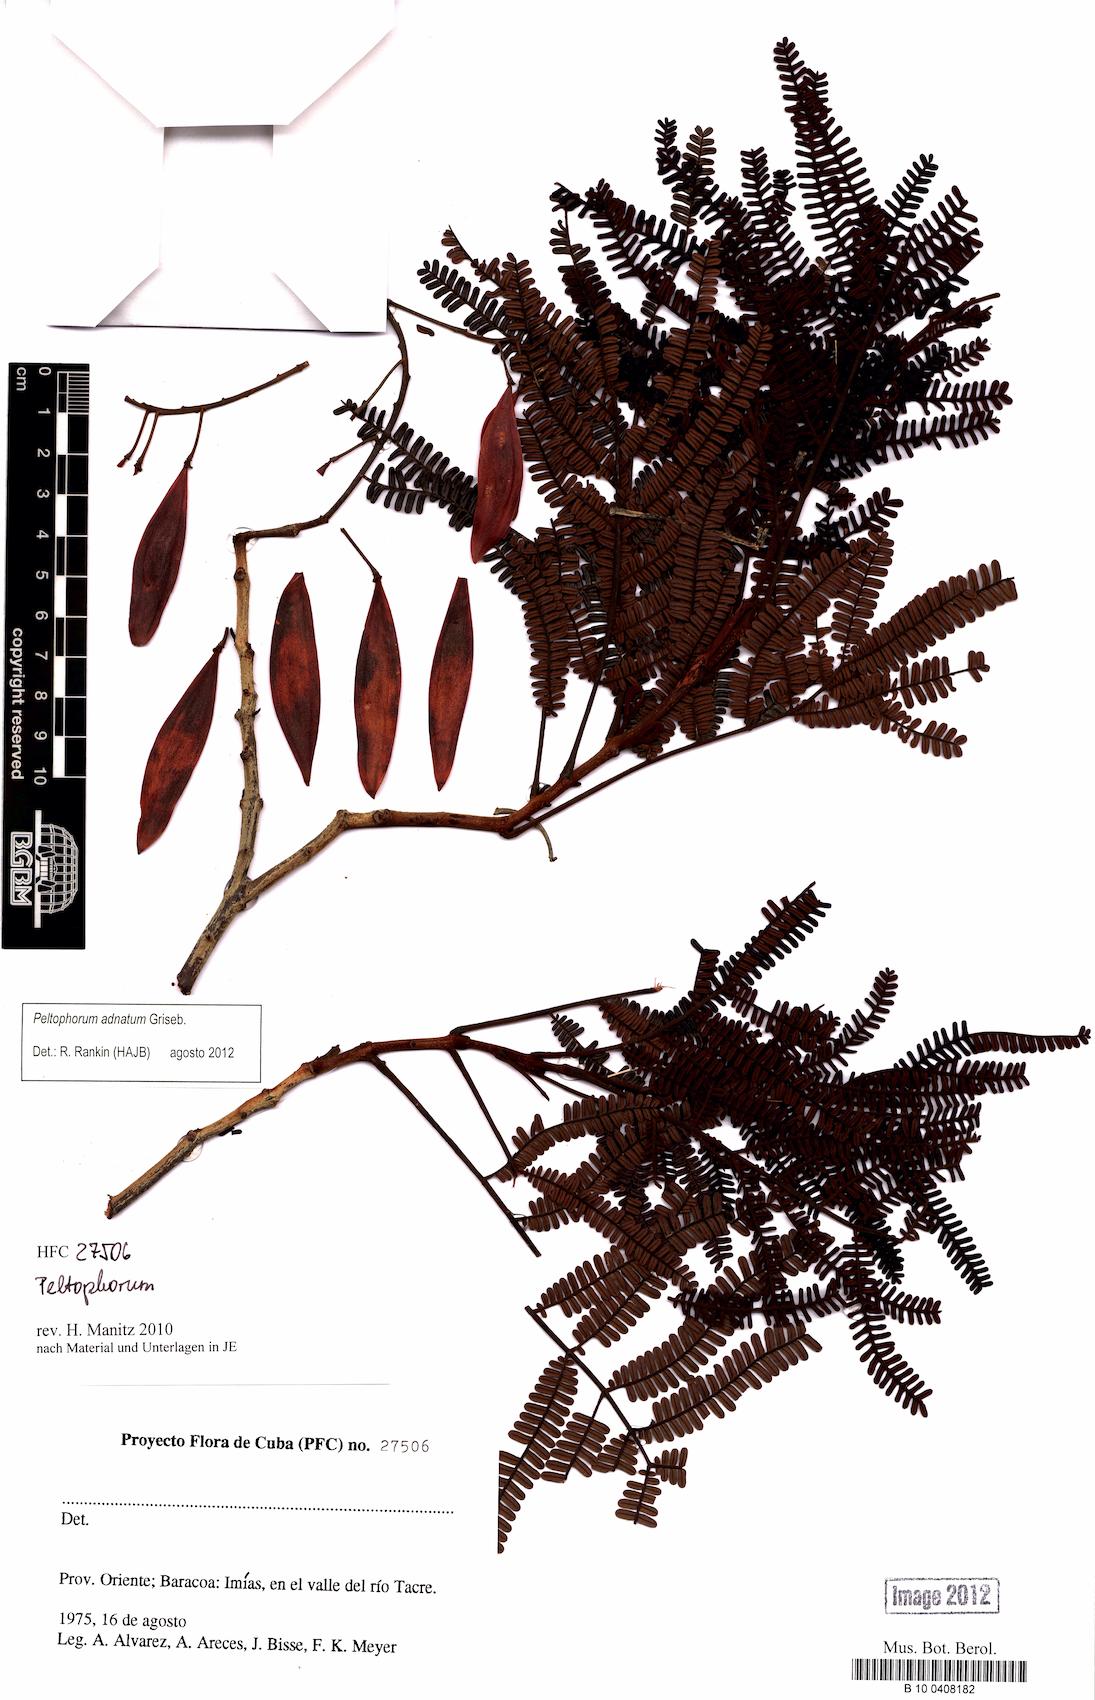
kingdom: Plantae
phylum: Tracheophyta
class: Magnoliopsida
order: Fabales
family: Fabaceae
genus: Peltophorum
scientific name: Peltophorum dubium
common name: Horsebush
